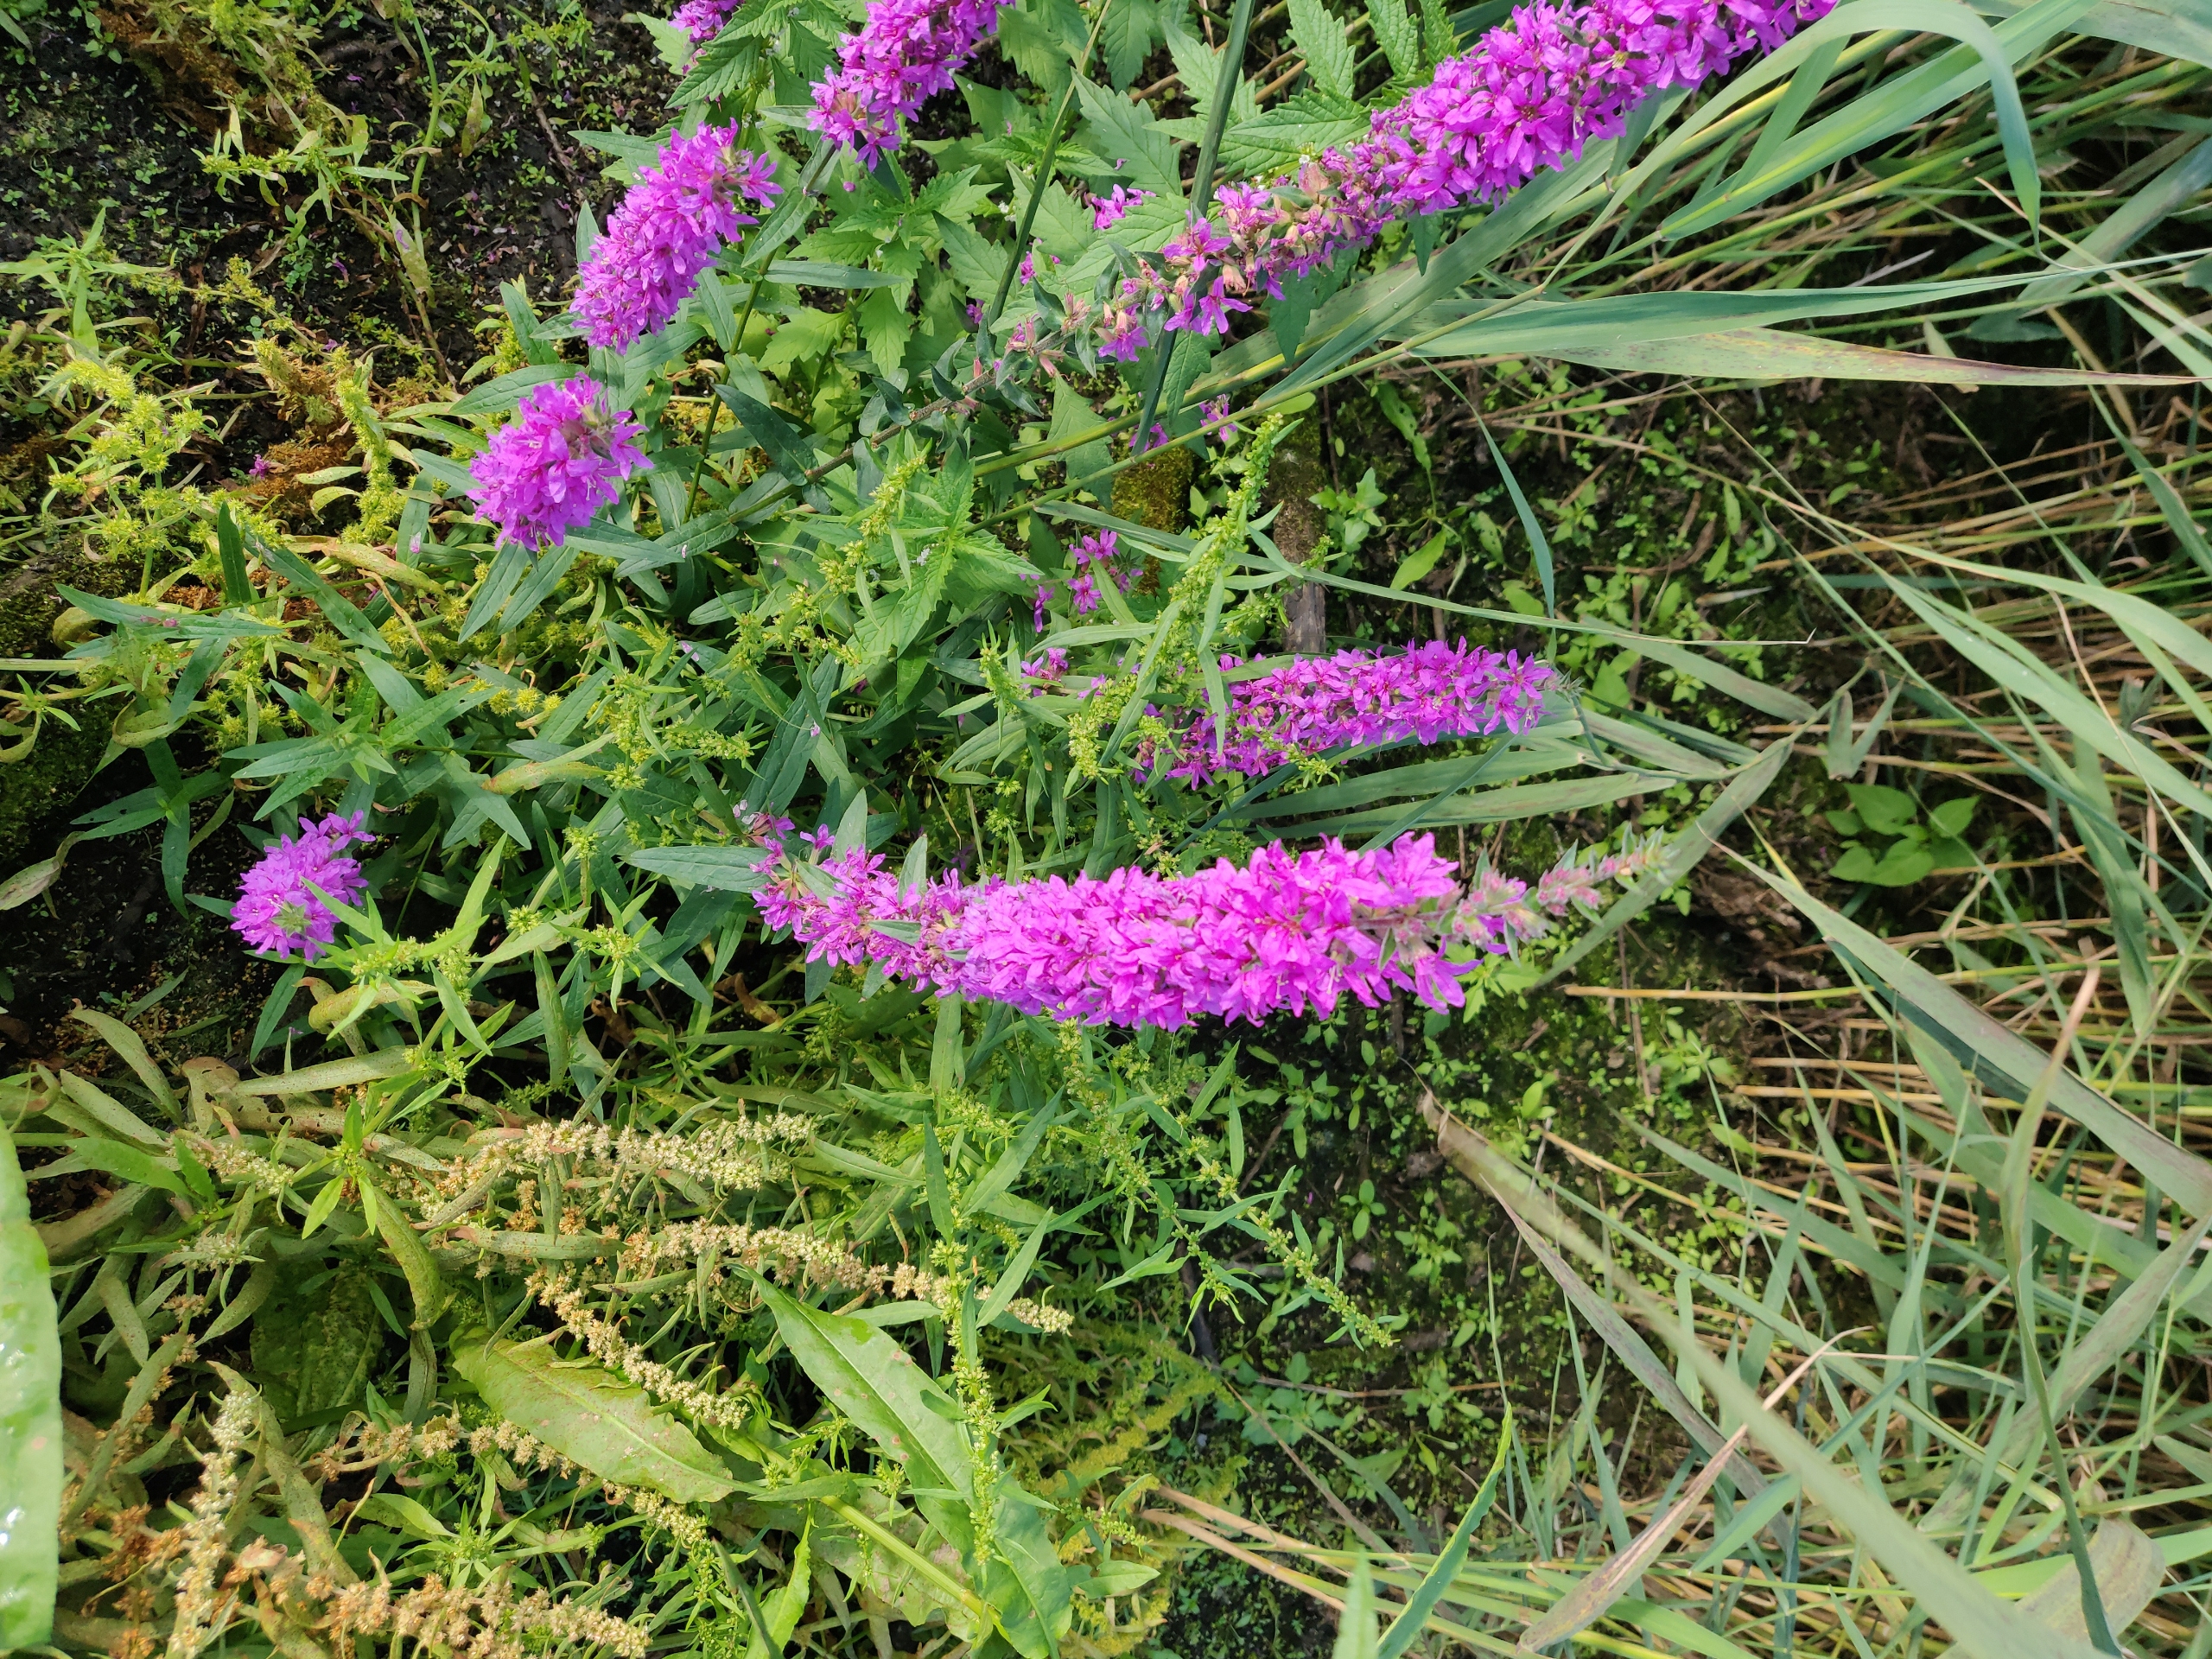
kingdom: Plantae
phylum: Tracheophyta
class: Magnoliopsida
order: Myrtales
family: Lythraceae
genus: Lythrum
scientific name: Lythrum salicaria
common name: Kattehale
